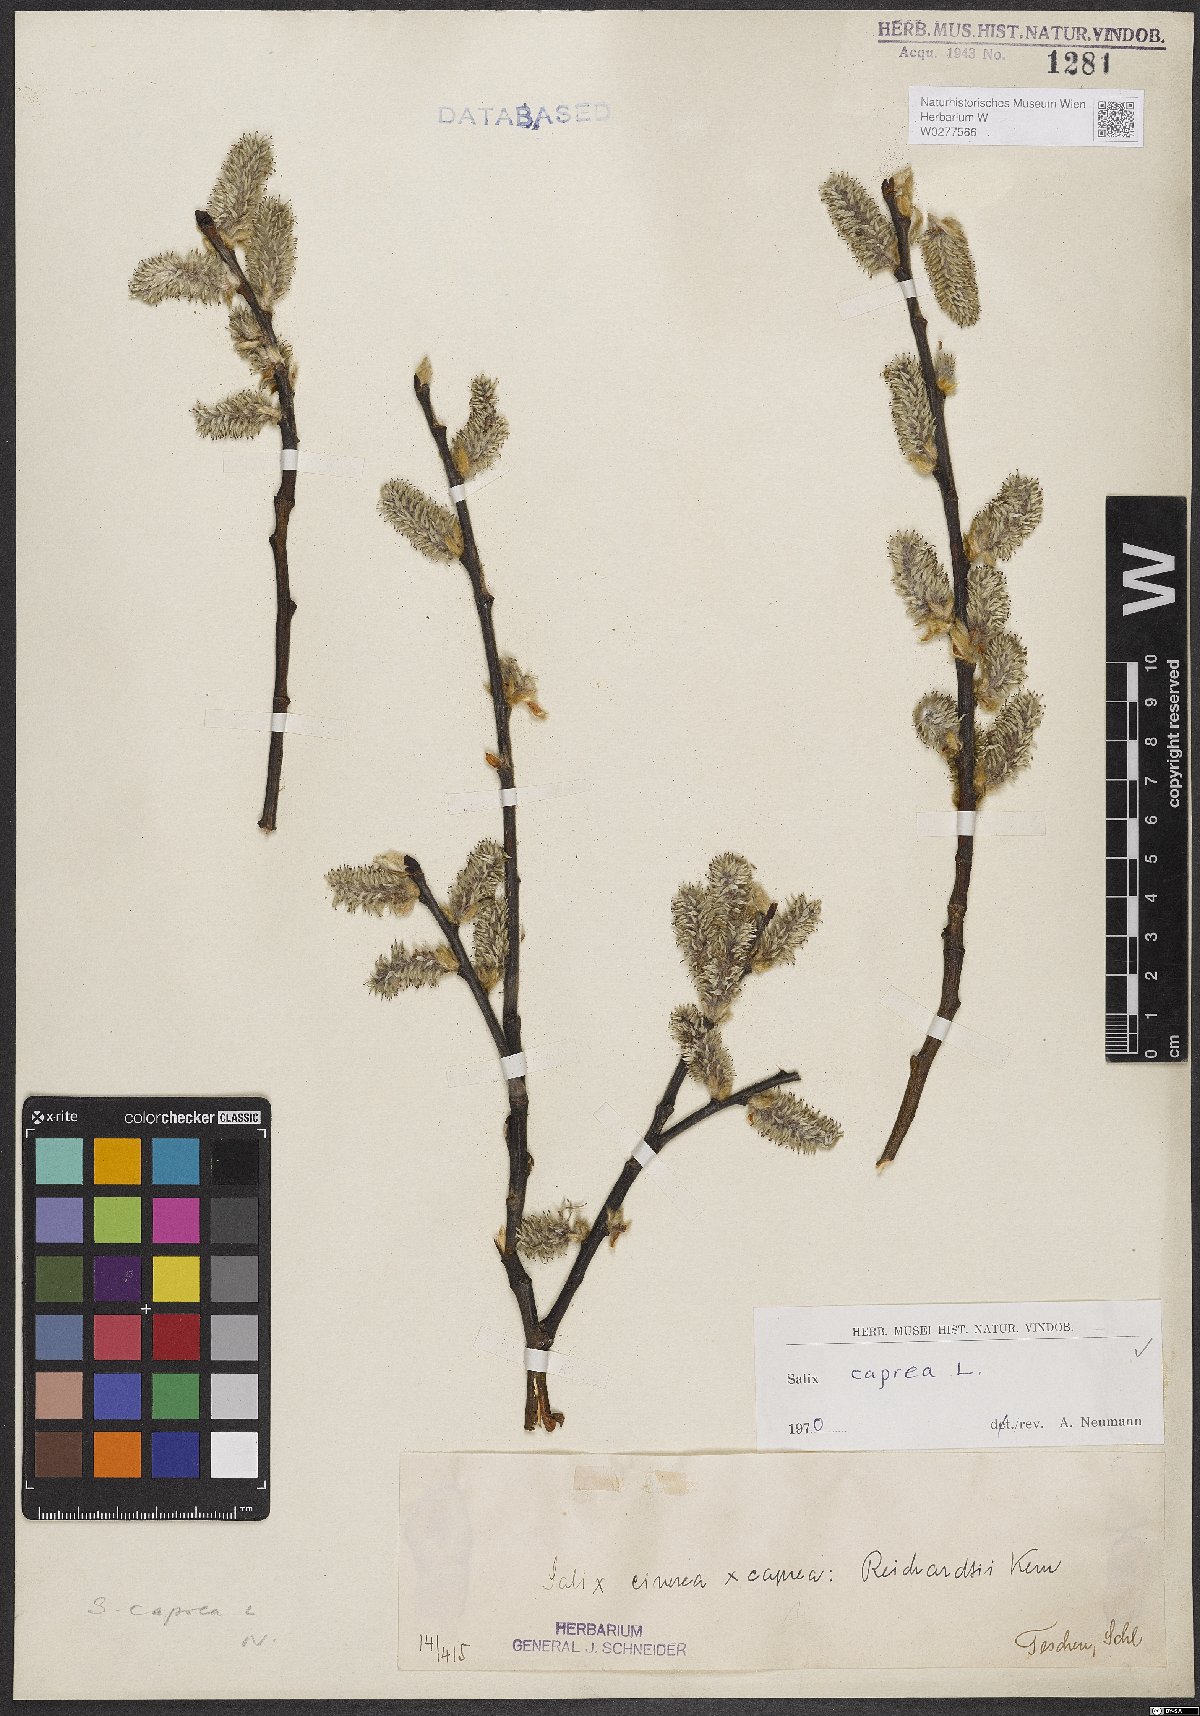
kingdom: Plantae
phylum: Tracheophyta
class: Magnoliopsida
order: Malpighiales
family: Salicaceae
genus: Salix
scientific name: Salix caprea
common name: Goat willow
